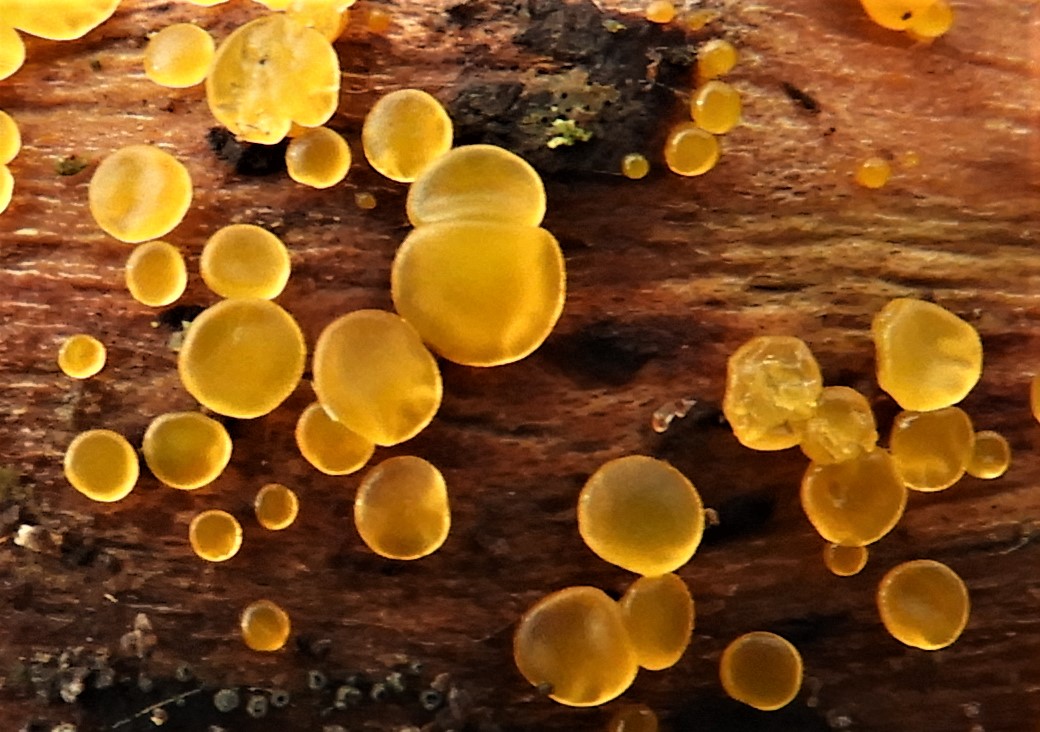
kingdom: Fungi
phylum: Ascomycota
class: Orbiliomycetes
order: Orbiliales
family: Orbiliaceae
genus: Orbilia
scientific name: Orbilia xanthostigma
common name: krumsporet voksskive
